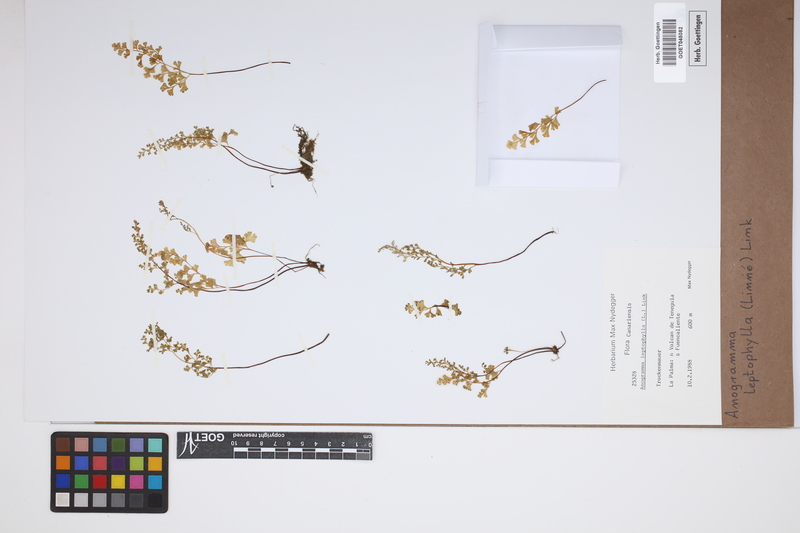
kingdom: Plantae
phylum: Tracheophyta
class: Polypodiopsida
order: Polypodiales
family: Pteridaceae
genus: Anogramma
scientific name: Anogramma leptophylla
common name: Jersey fern
